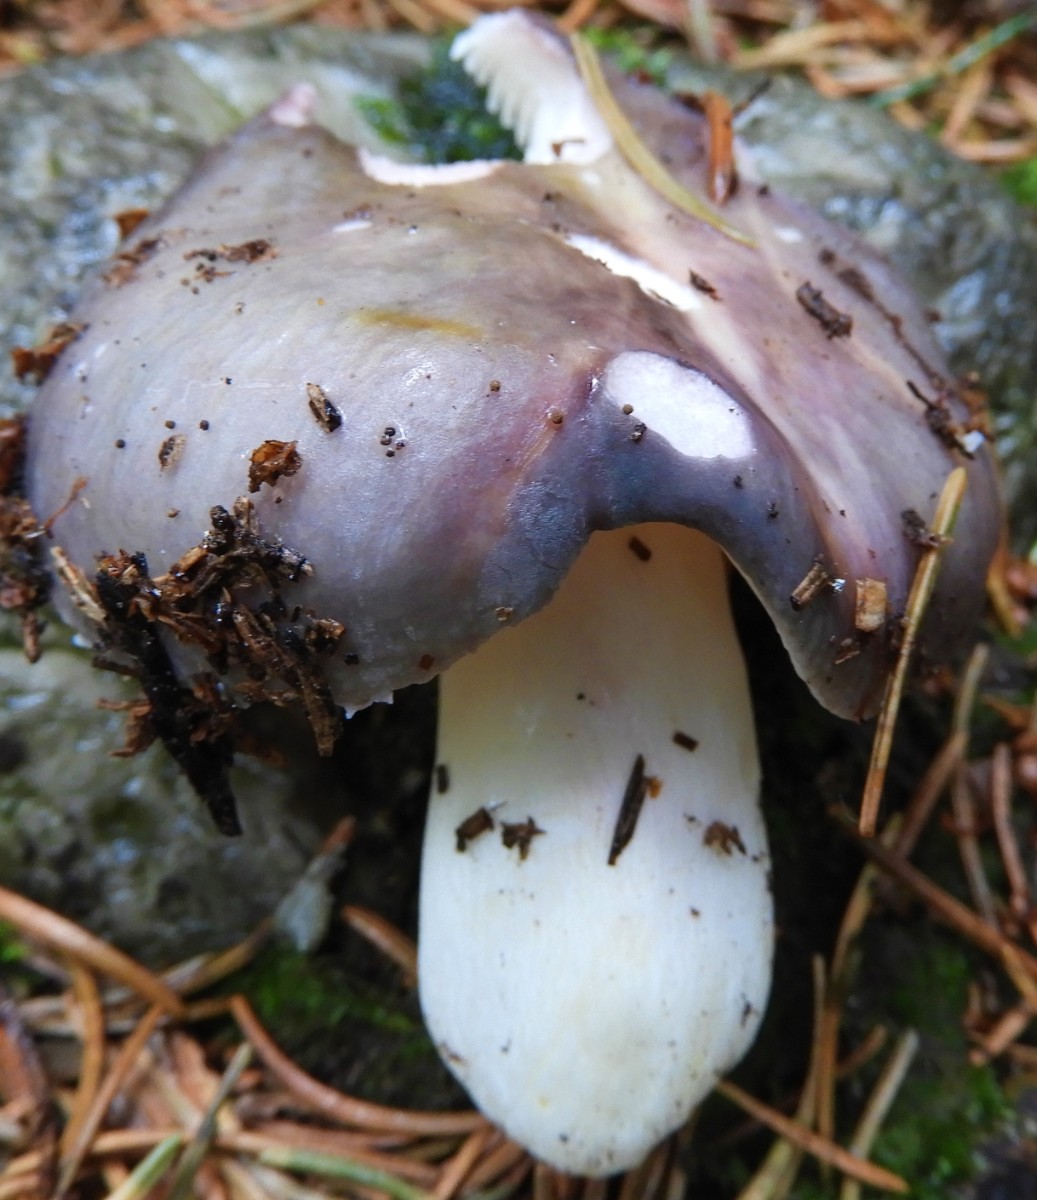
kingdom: Fungi
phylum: Basidiomycota
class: Agaricomycetes
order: Russulales
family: Russulaceae
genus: Russula
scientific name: Russula
